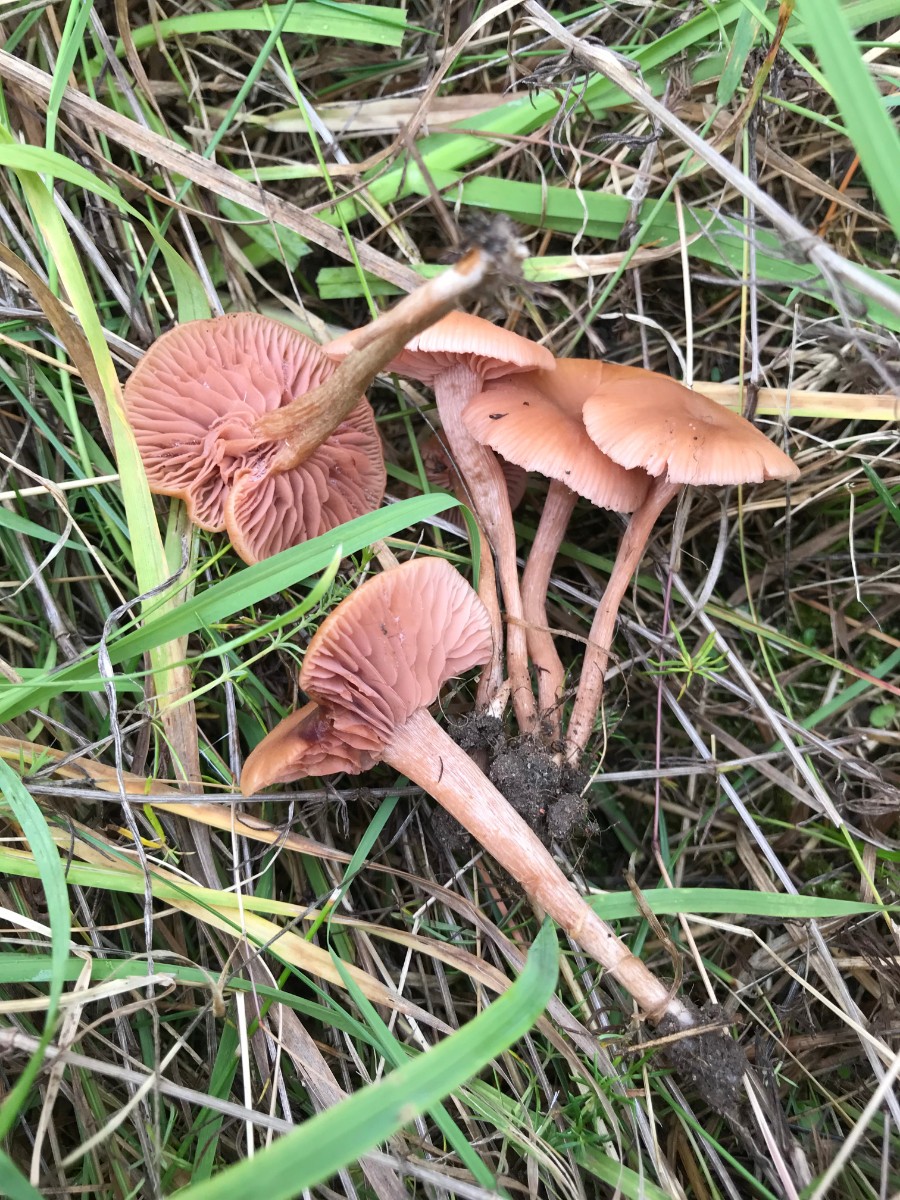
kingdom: Fungi
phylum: Basidiomycota
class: Agaricomycetes
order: Agaricales
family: Hydnangiaceae
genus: Laccaria
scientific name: Laccaria laccata
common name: rød ametysthat
